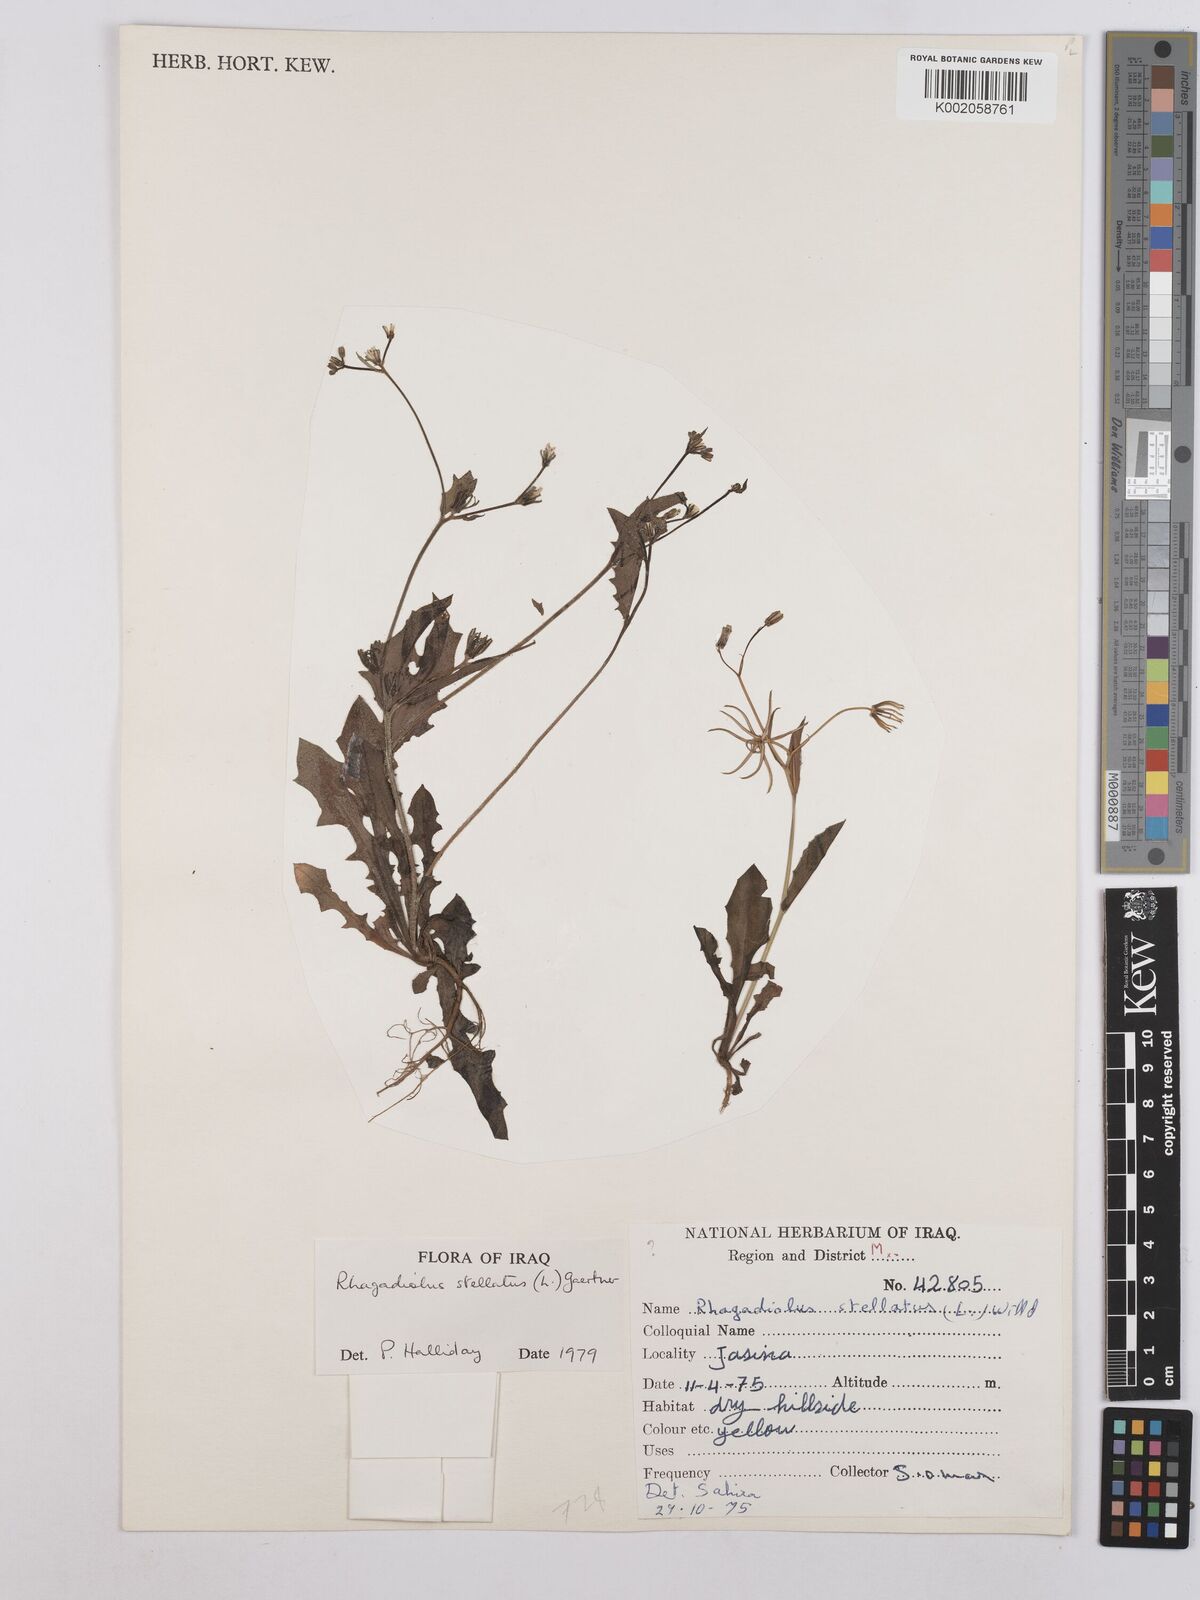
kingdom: Plantae
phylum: Tracheophyta
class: Magnoliopsida
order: Asterales
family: Asteraceae
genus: Rhagadiolus
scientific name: Rhagadiolus stellatus
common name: Star hawkbit
